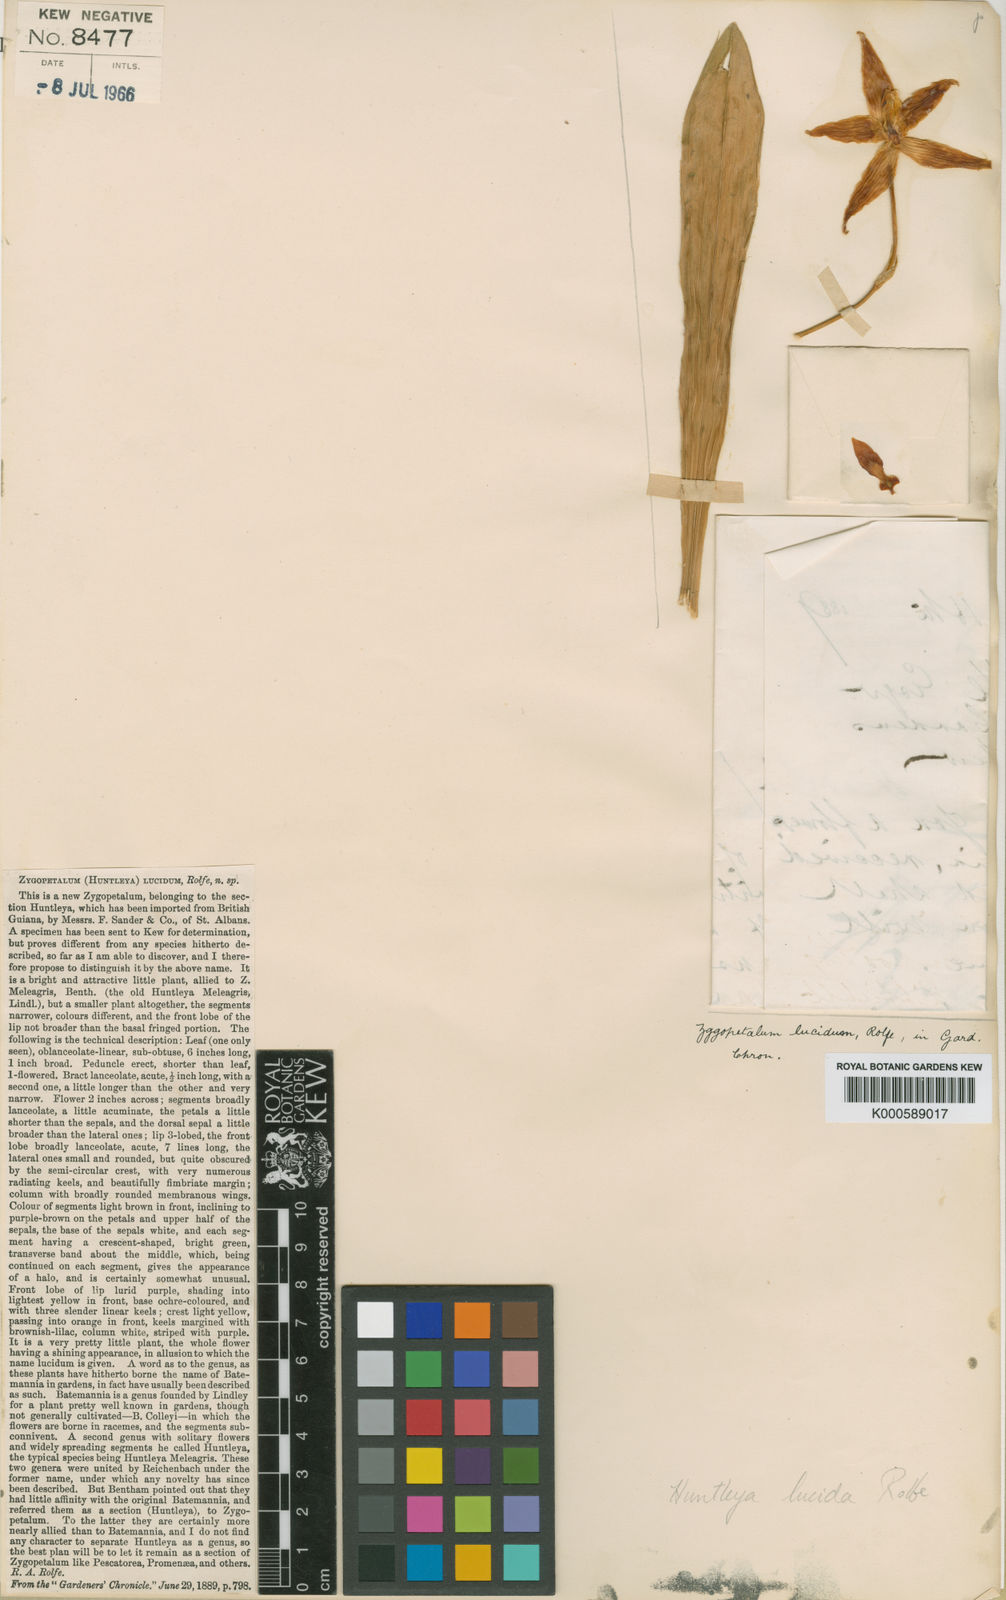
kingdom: Plantae
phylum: Tracheophyta
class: Liliopsida
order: Asparagales
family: Orchidaceae
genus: Huntleya
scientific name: Huntleya lucida
